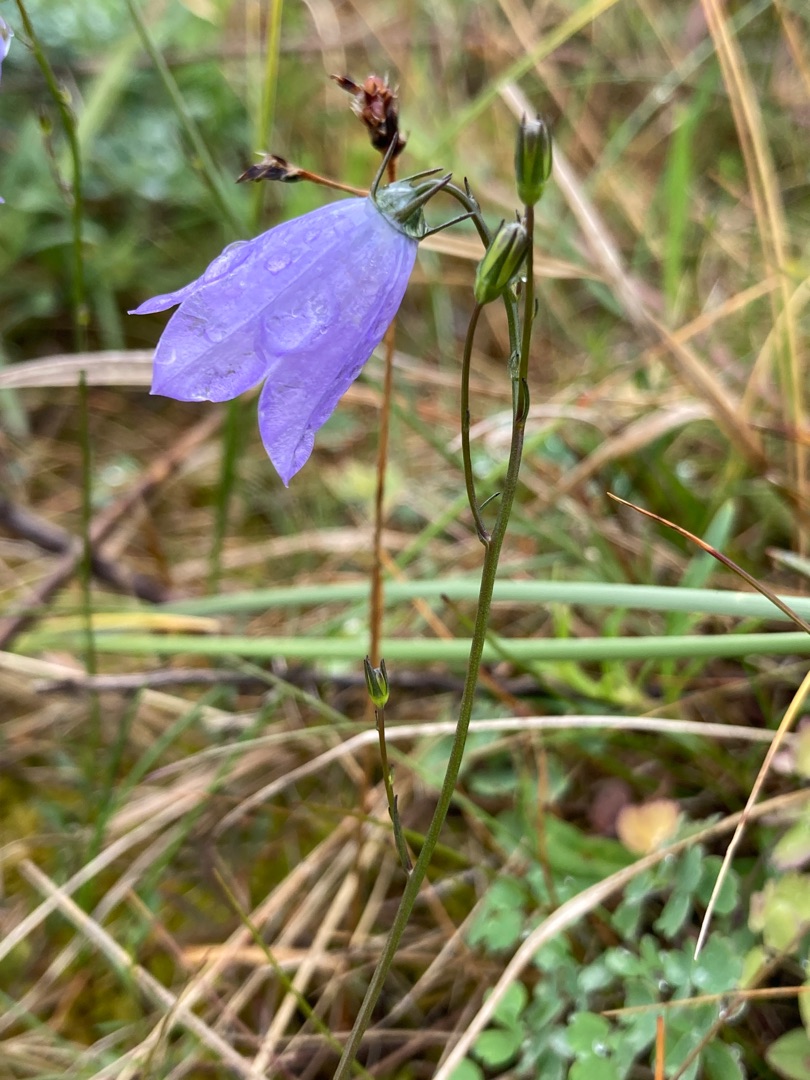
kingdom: Plantae
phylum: Tracheophyta
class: Magnoliopsida
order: Asterales
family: Campanulaceae
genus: Campanula
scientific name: Campanula rotundifolia
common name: Liden klokke
